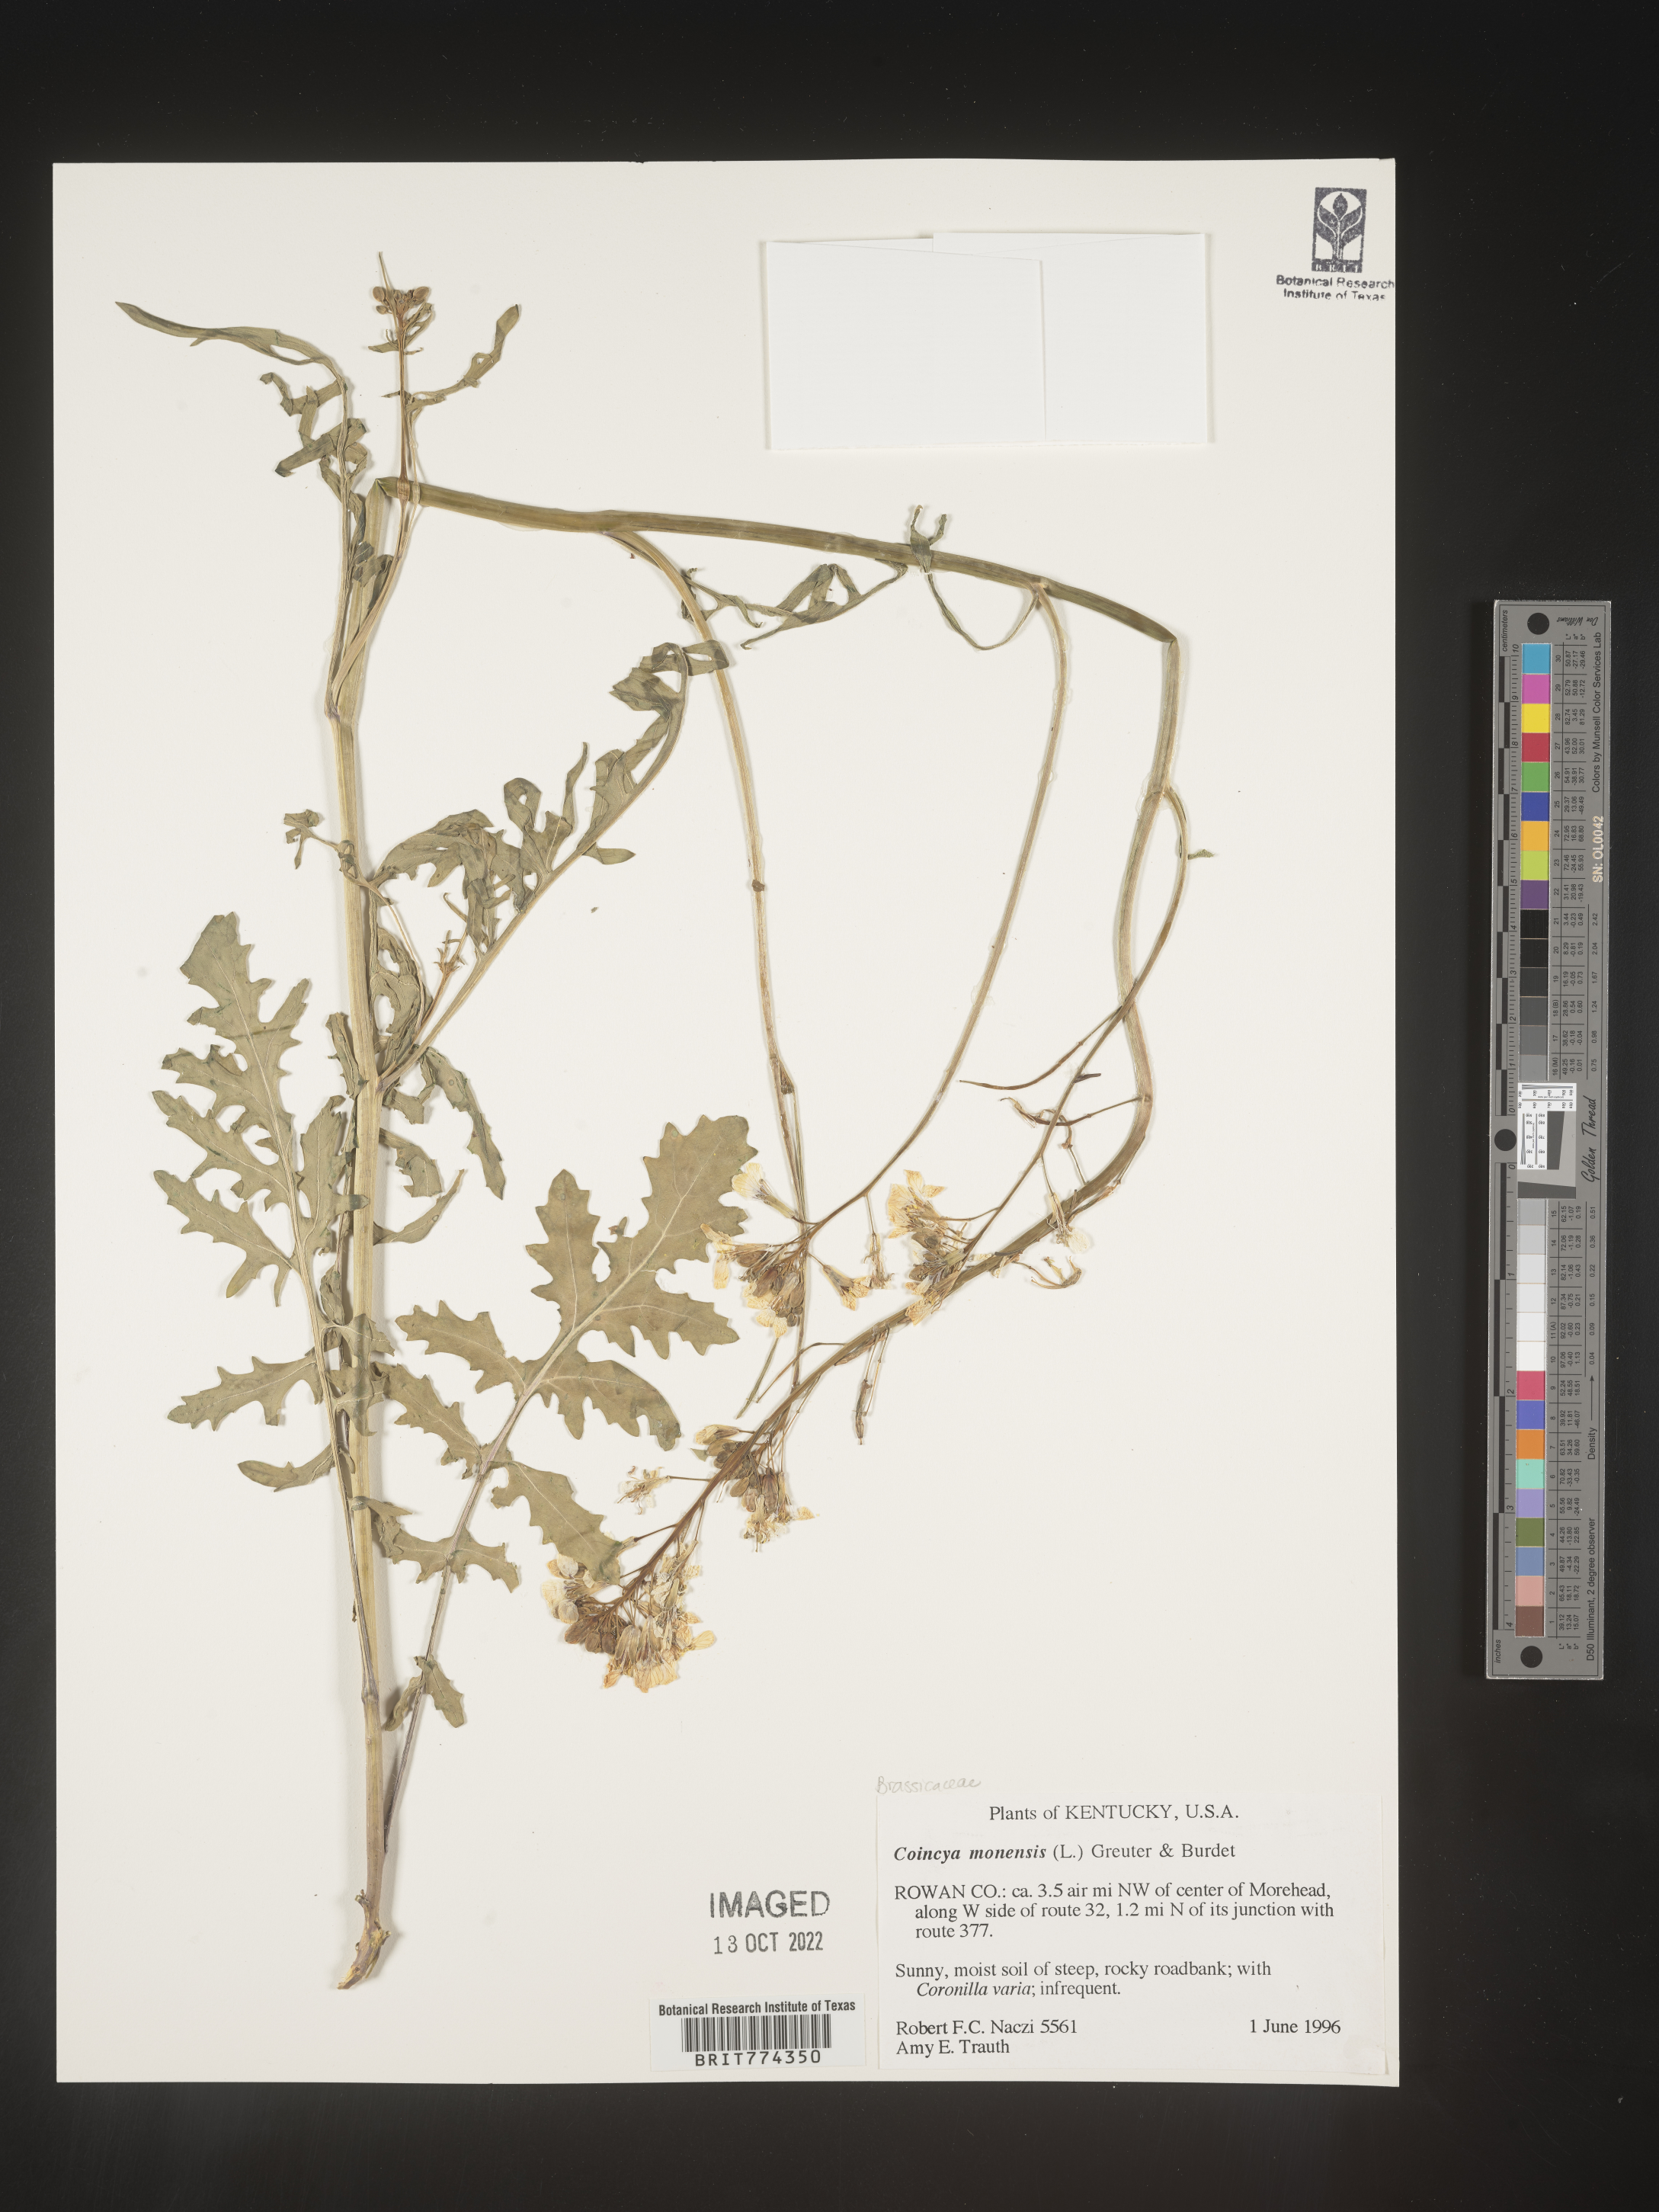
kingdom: Plantae
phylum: Tracheophyta
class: Magnoliopsida
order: Brassicales
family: Brassicaceae
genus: Coincya
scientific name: Coincya
